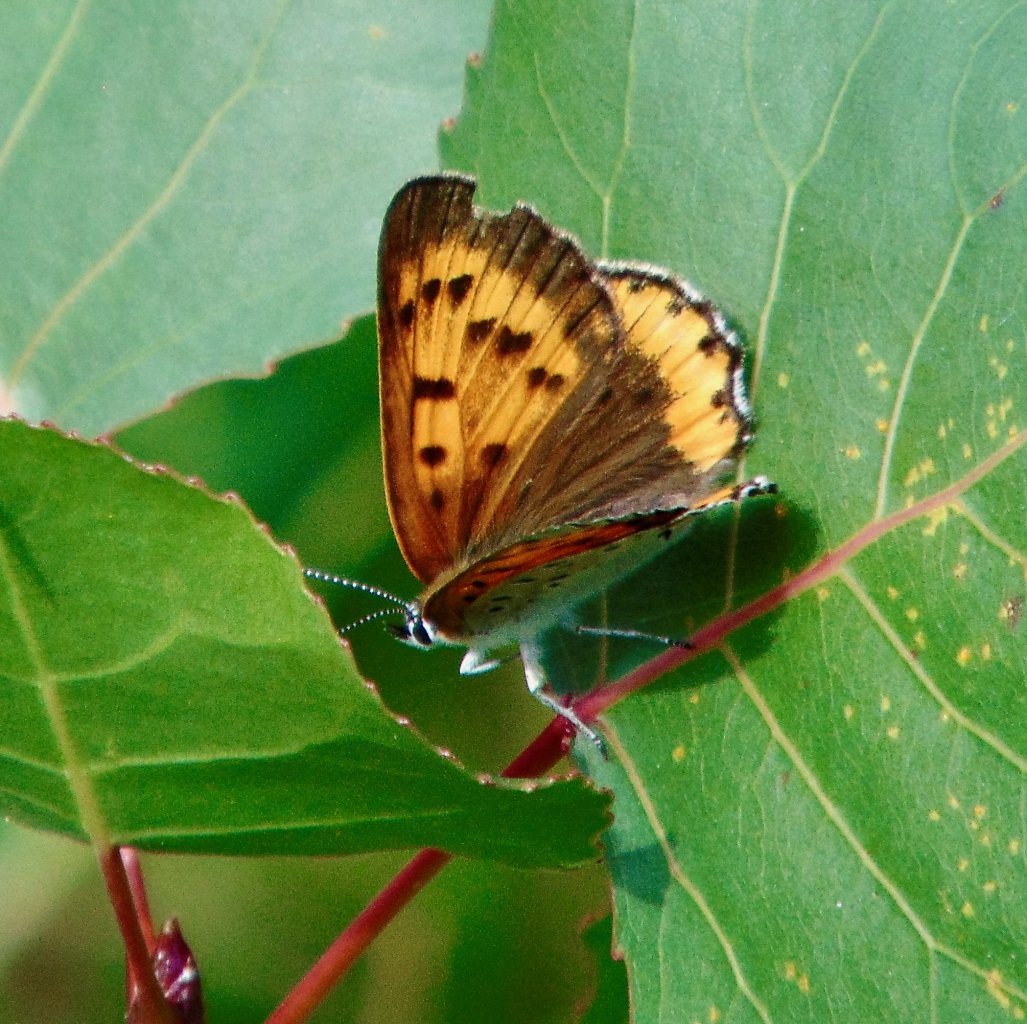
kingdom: Animalia
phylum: Arthropoda
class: Insecta
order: Lepidoptera
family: Sesiidae
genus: Sesia
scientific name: Sesia Lycaena hyllus
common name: Bronze Copper
